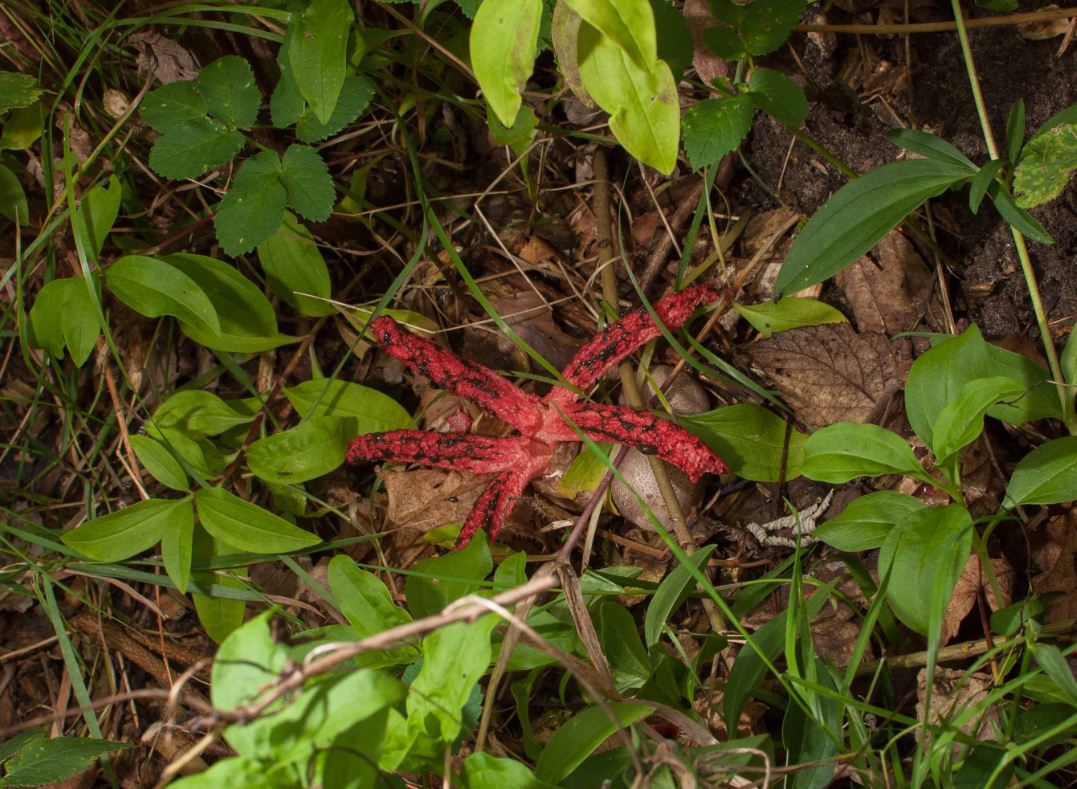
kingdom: Fungi
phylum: Basidiomycota
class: Agaricomycetes
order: Phallales
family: Phallaceae
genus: Clathrus
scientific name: Clathrus archeri
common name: blækspruttesvamp
